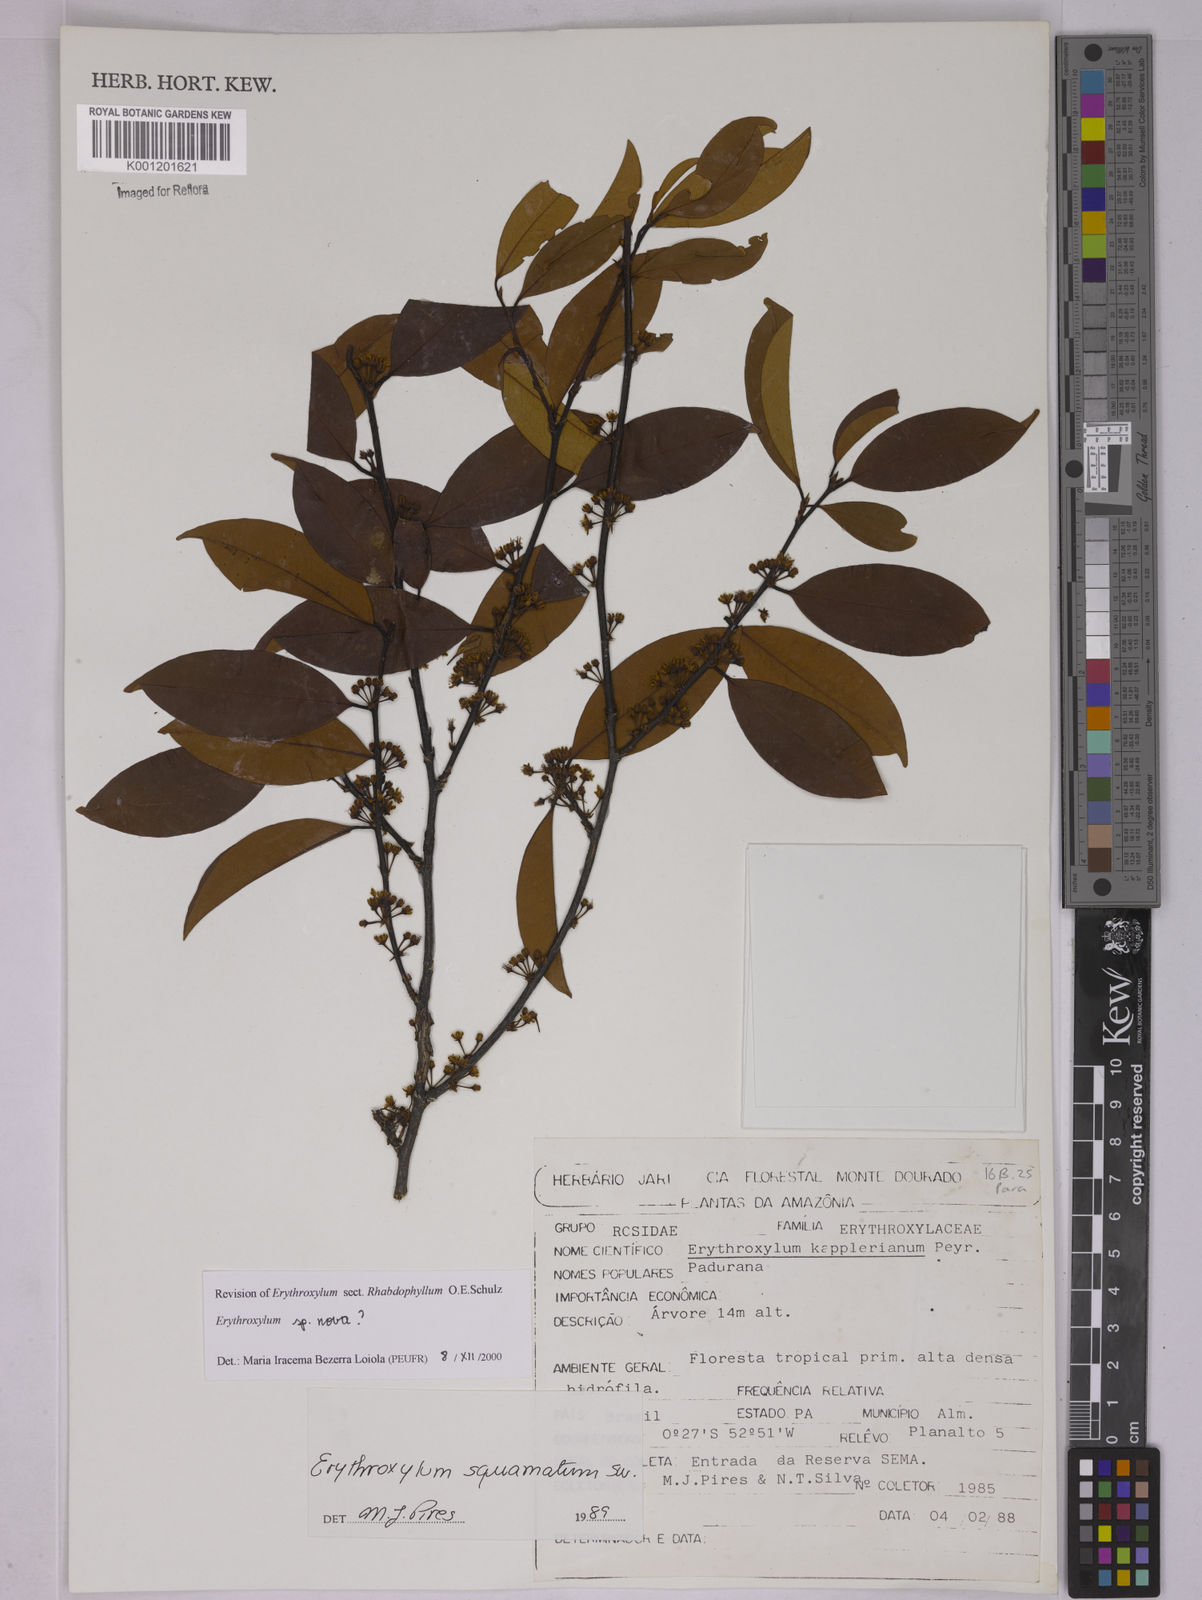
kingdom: Plantae
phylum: Tracheophyta
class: Magnoliopsida
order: Malpighiales
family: Erythroxylaceae
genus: Erythroxylum
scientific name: Erythroxylum
